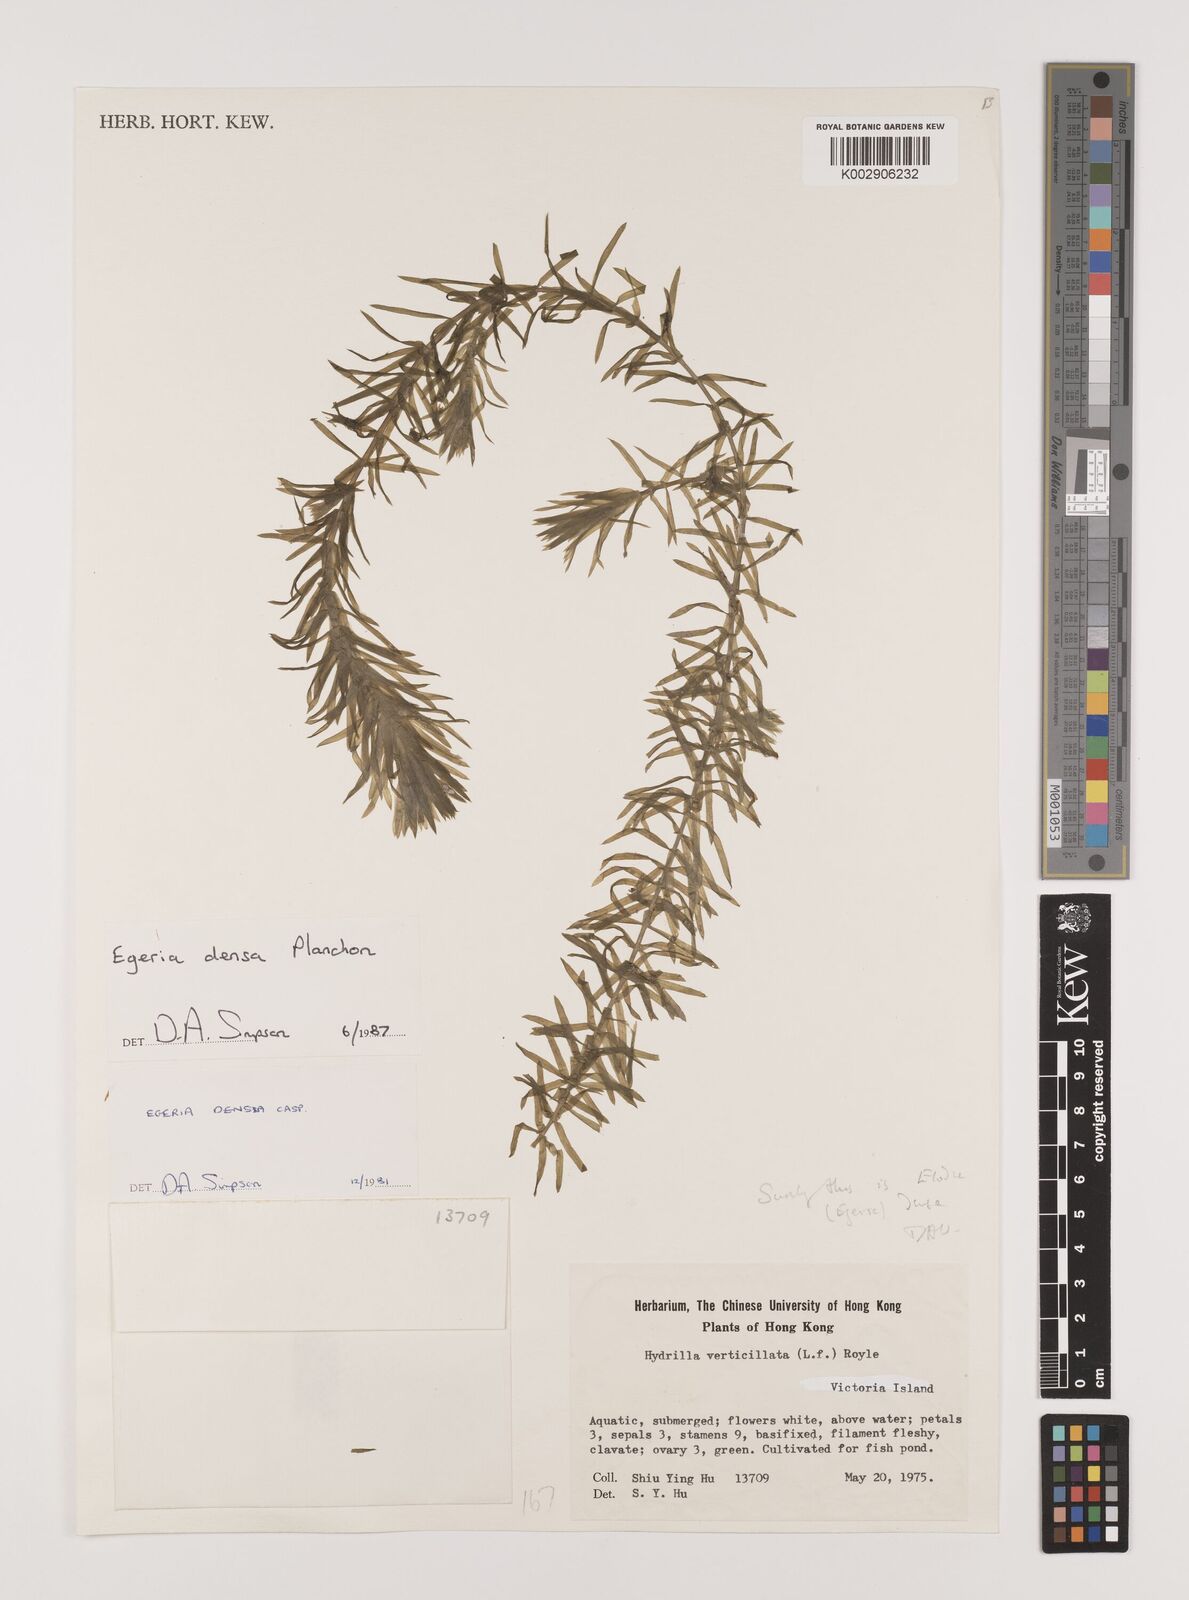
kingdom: Plantae
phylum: Tracheophyta
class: Liliopsida
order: Alismatales
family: Hydrocharitaceae
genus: Elodea
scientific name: Elodea densa
